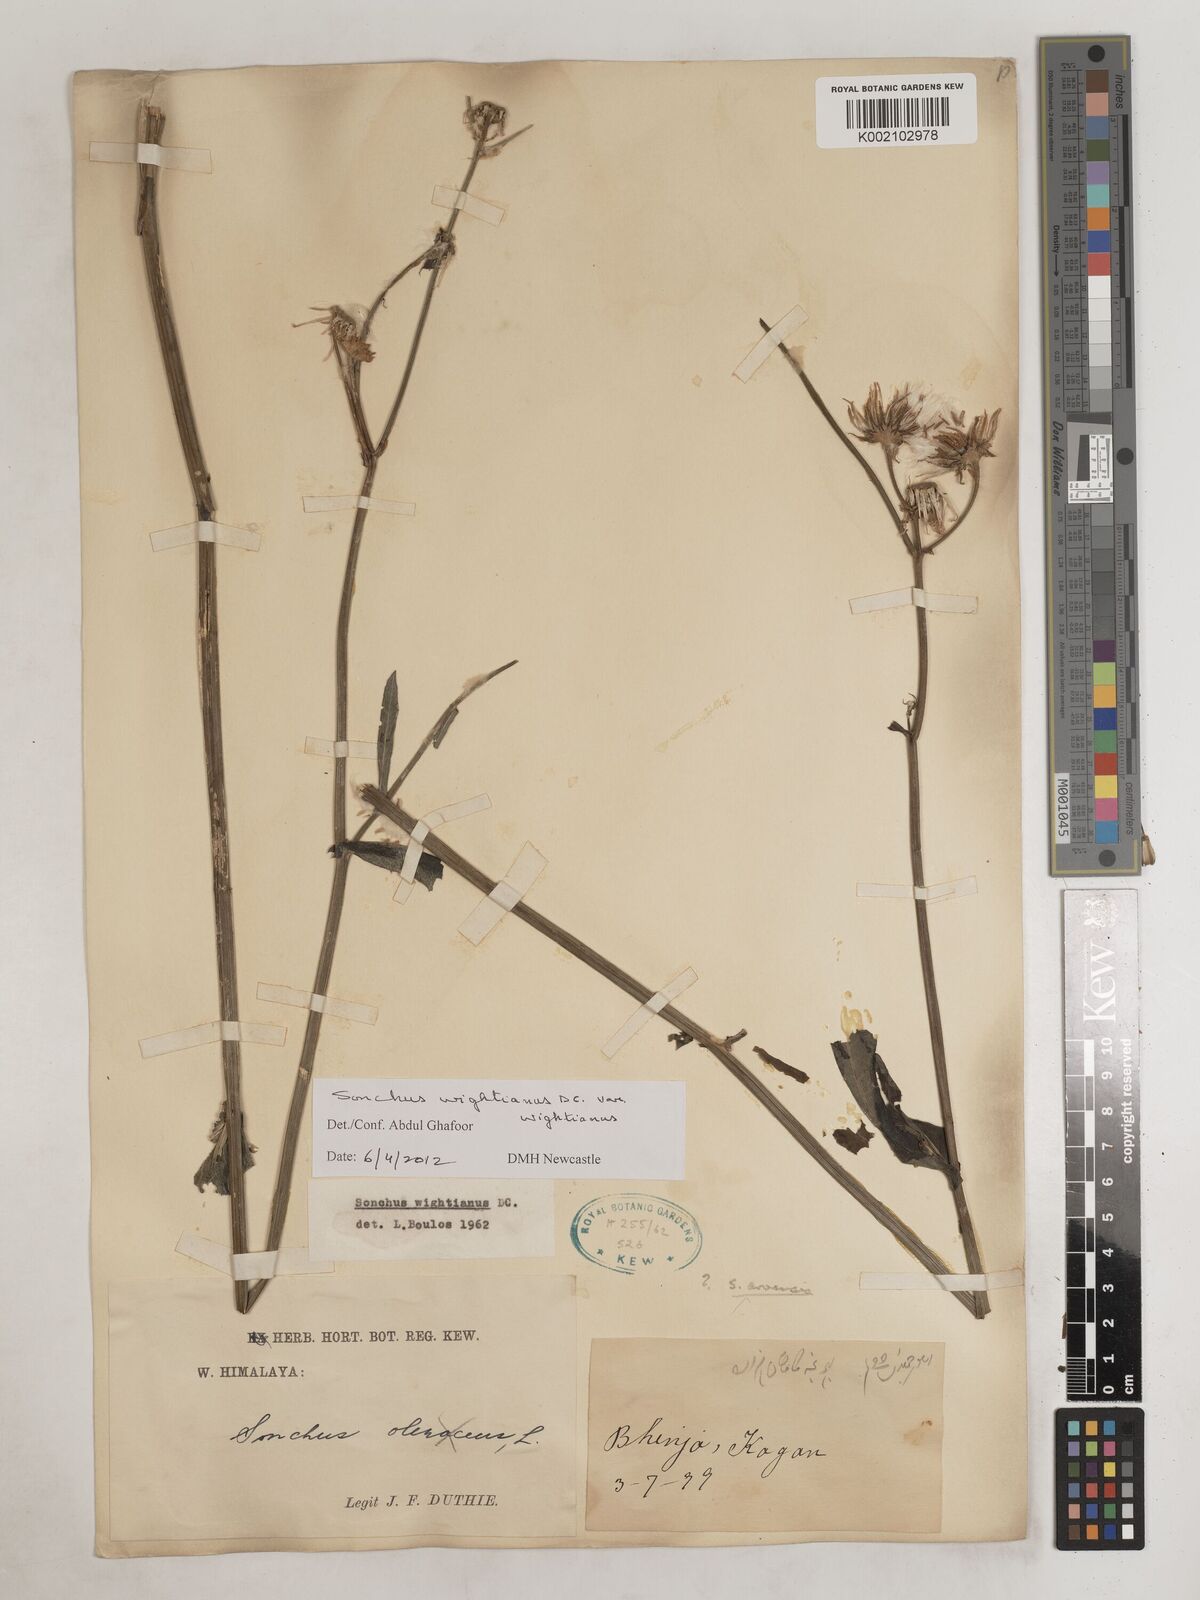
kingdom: Plantae
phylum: Tracheophyta
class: Magnoliopsida
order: Asterales
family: Asteraceae
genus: Sonchus
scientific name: Sonchus wightianus
